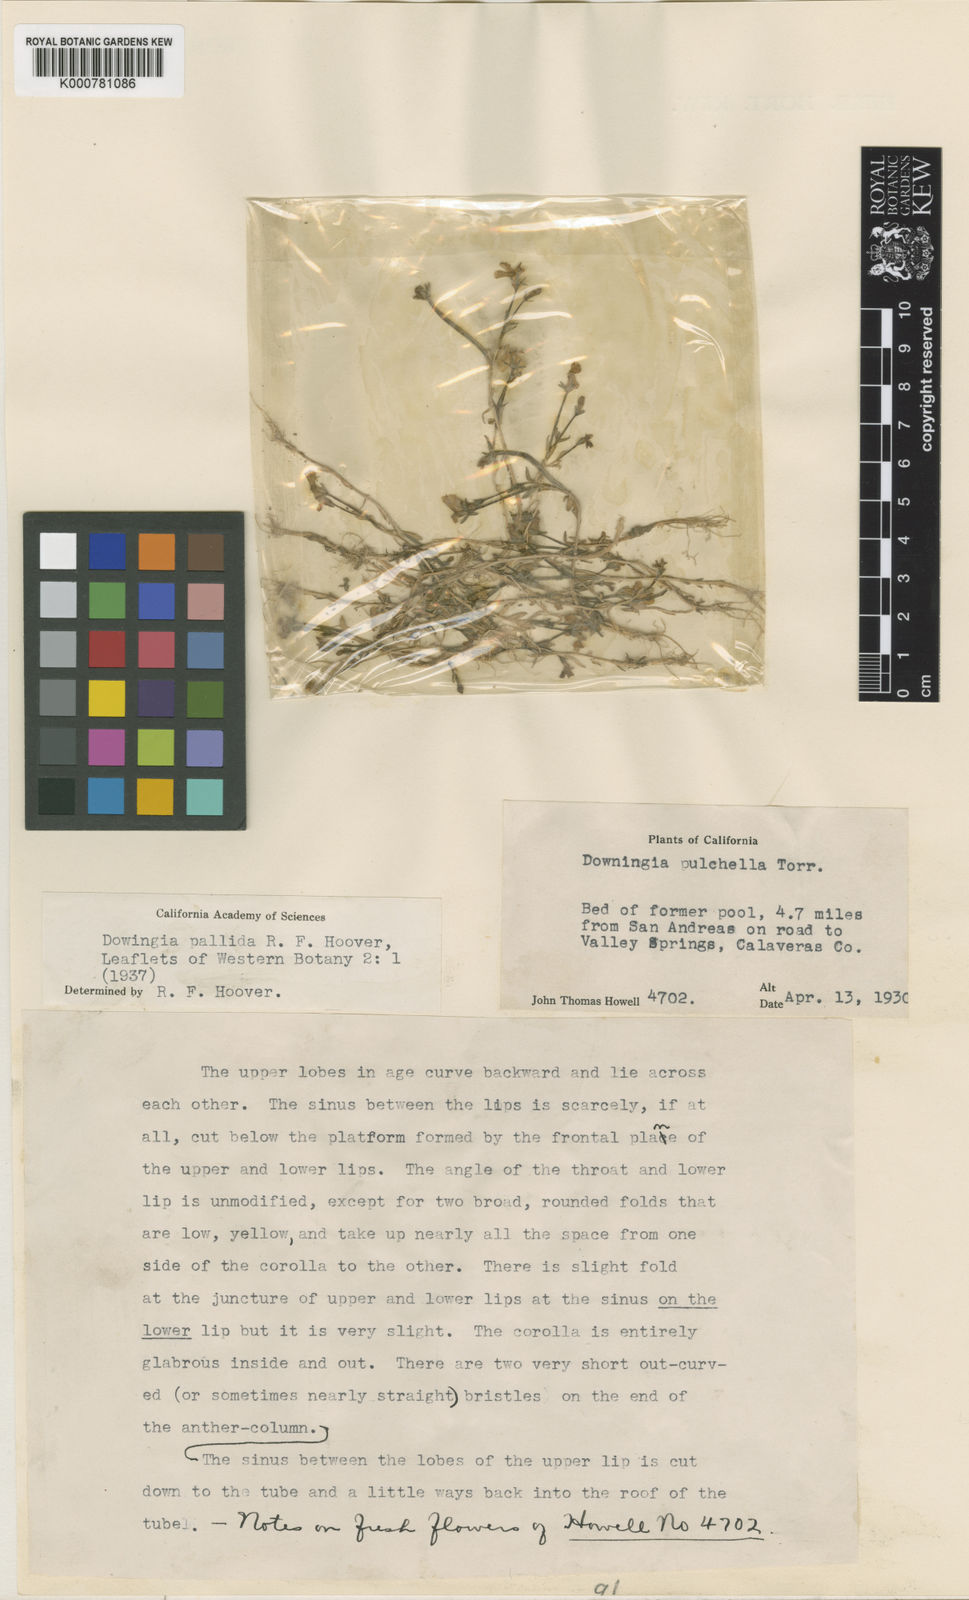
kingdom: Plantae
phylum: Tracheophyta
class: Magnoliopsida
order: Asterales
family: Campanulaceae
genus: Downingia
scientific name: Downingia cuspidata
